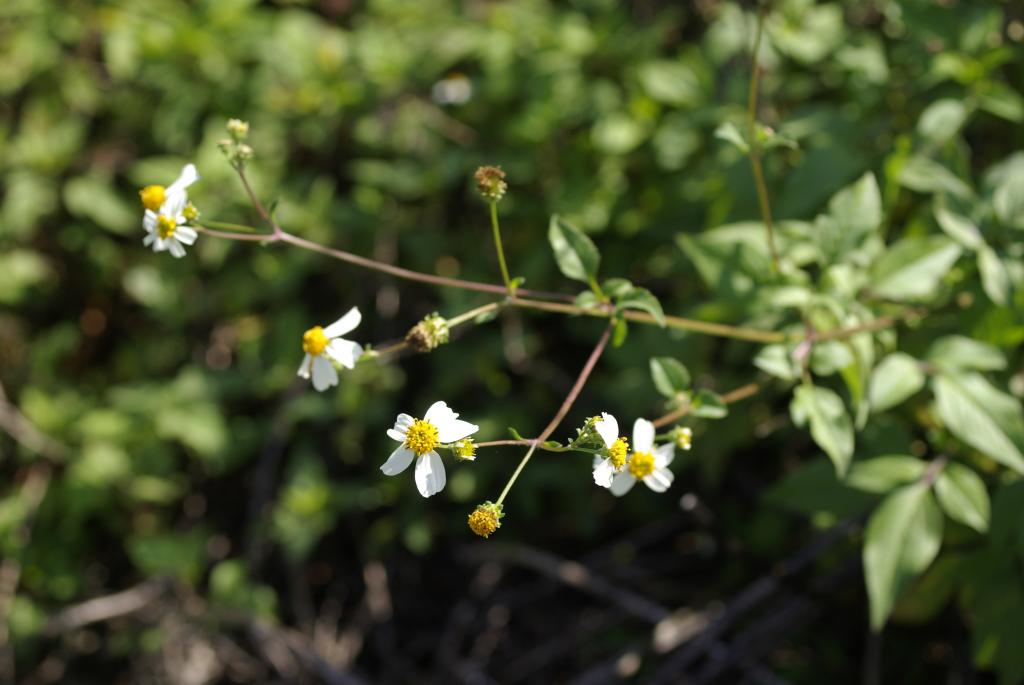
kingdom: Plantae
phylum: Tracheophyta
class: Magnoliopsida
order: Asterales
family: Asteraceae
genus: Bidens
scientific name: Bidens pilosa
